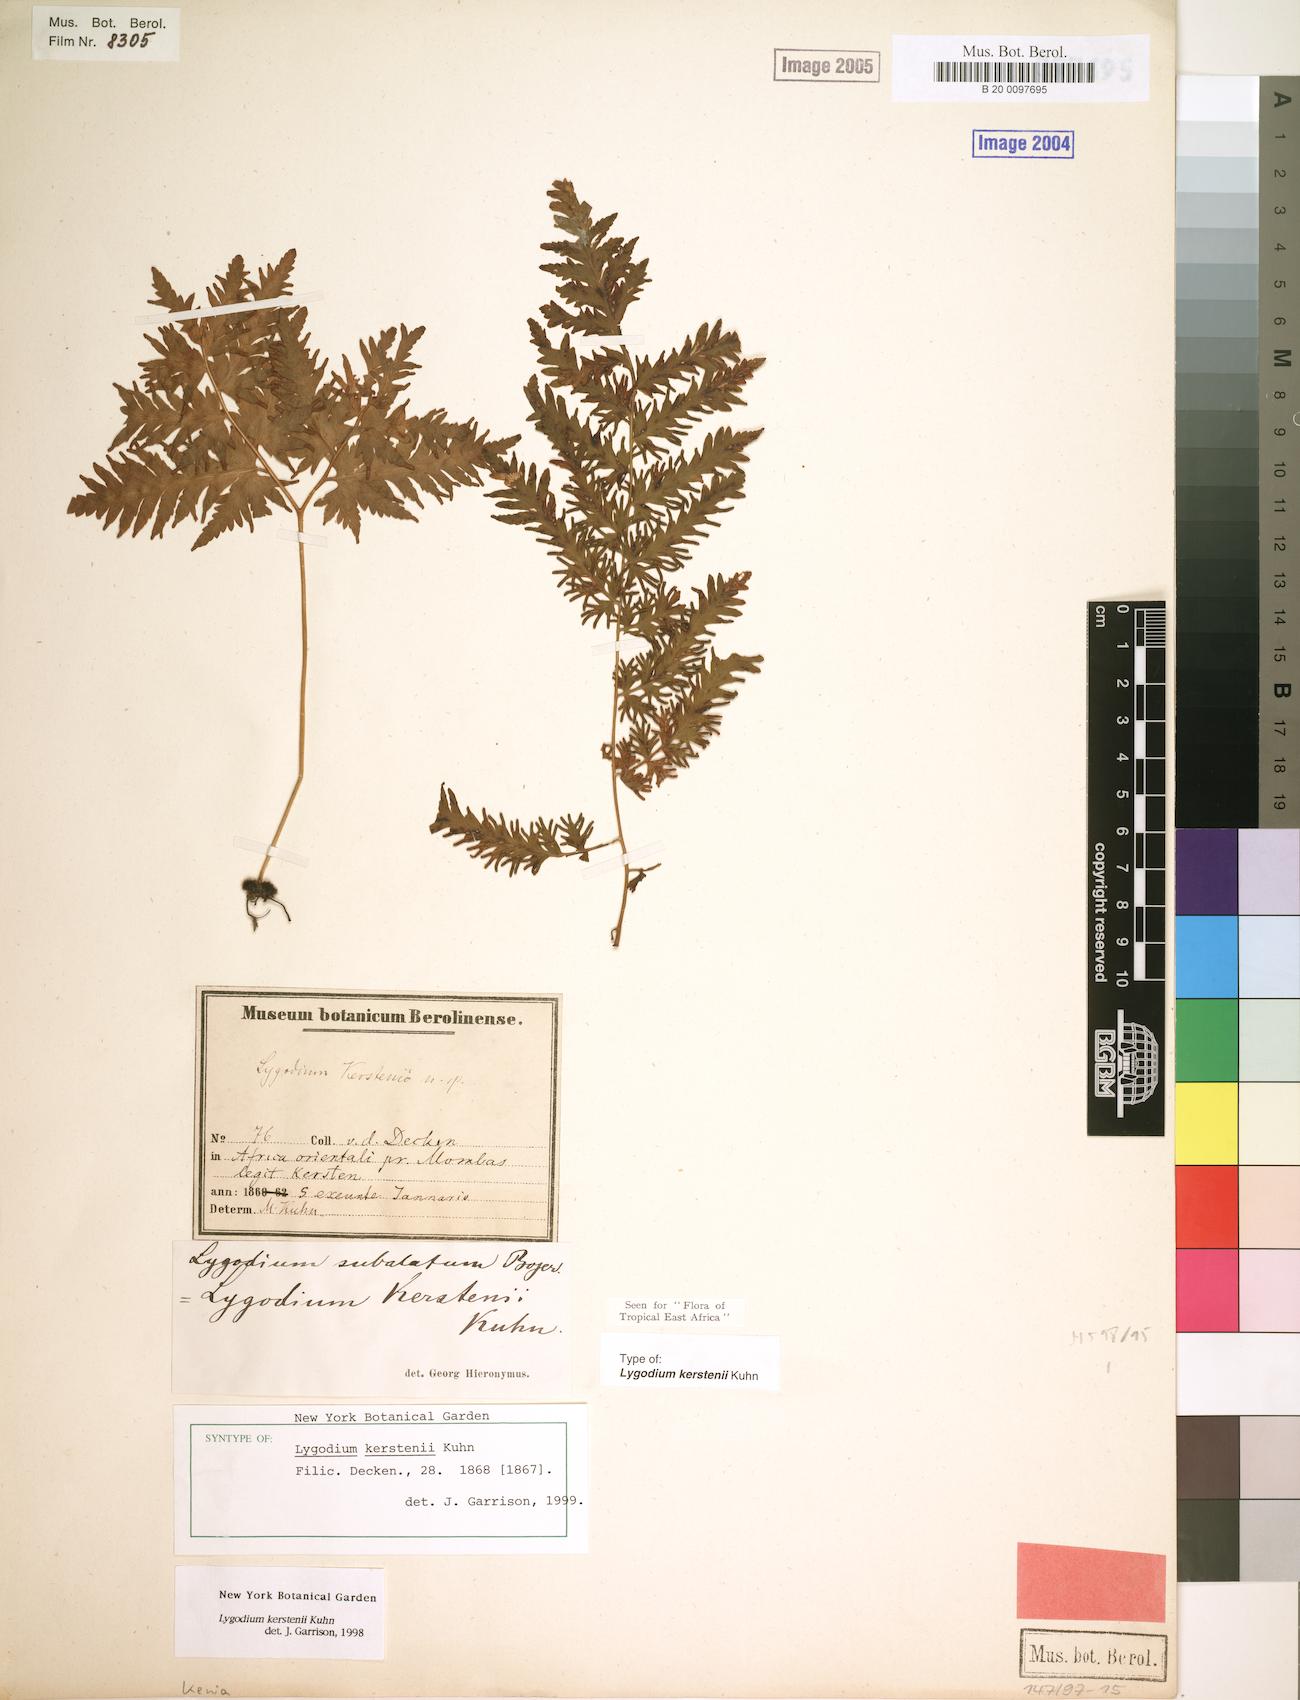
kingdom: Plantae
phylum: Tracheophyta
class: Polypodiopsida
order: Schizaeales
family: Lygodiaceae
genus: Lygodium
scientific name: Lygodium kerstenii
